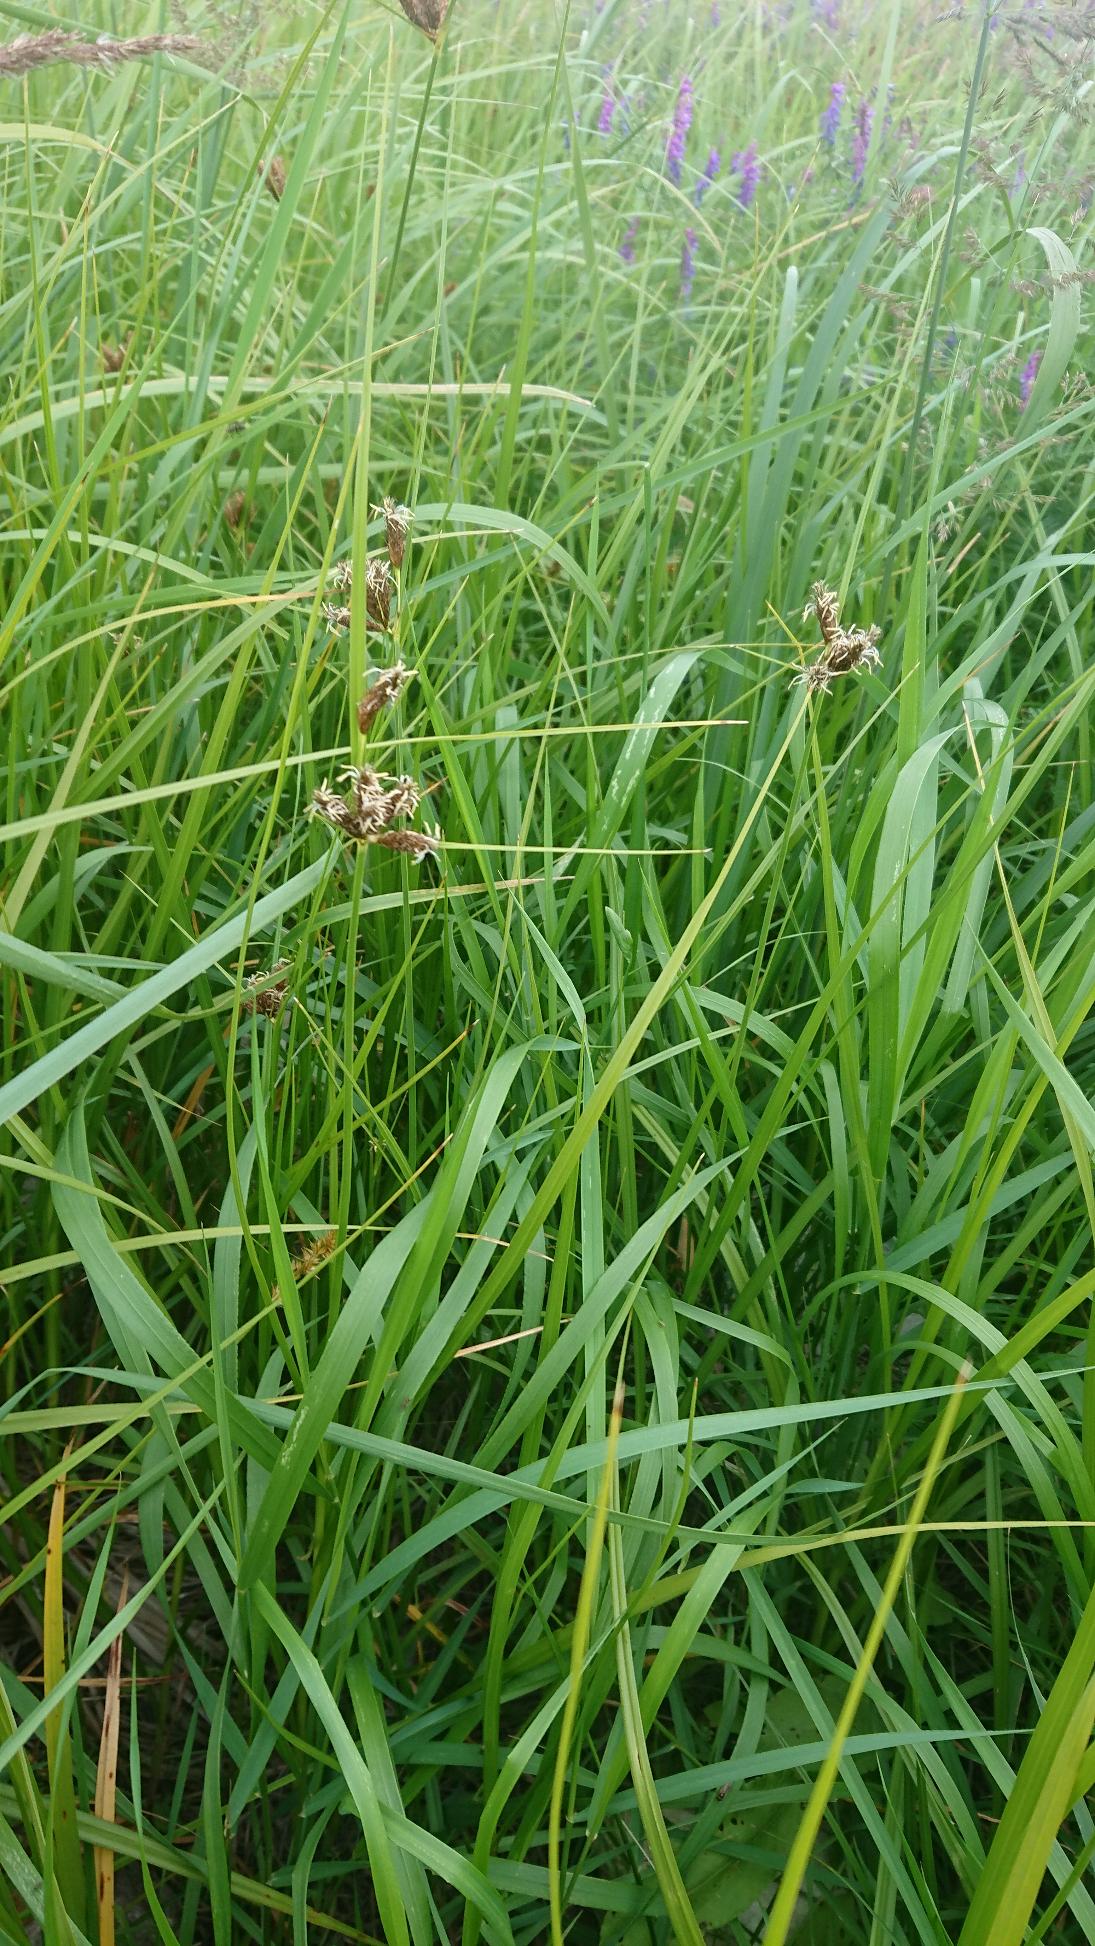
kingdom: Plantae
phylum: Tracheophyta
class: Liliopsida
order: Poales
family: Cyperaceae
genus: Bolboschoenus
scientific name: Bolboschoenus maritimus
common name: Strand-kogleaks
